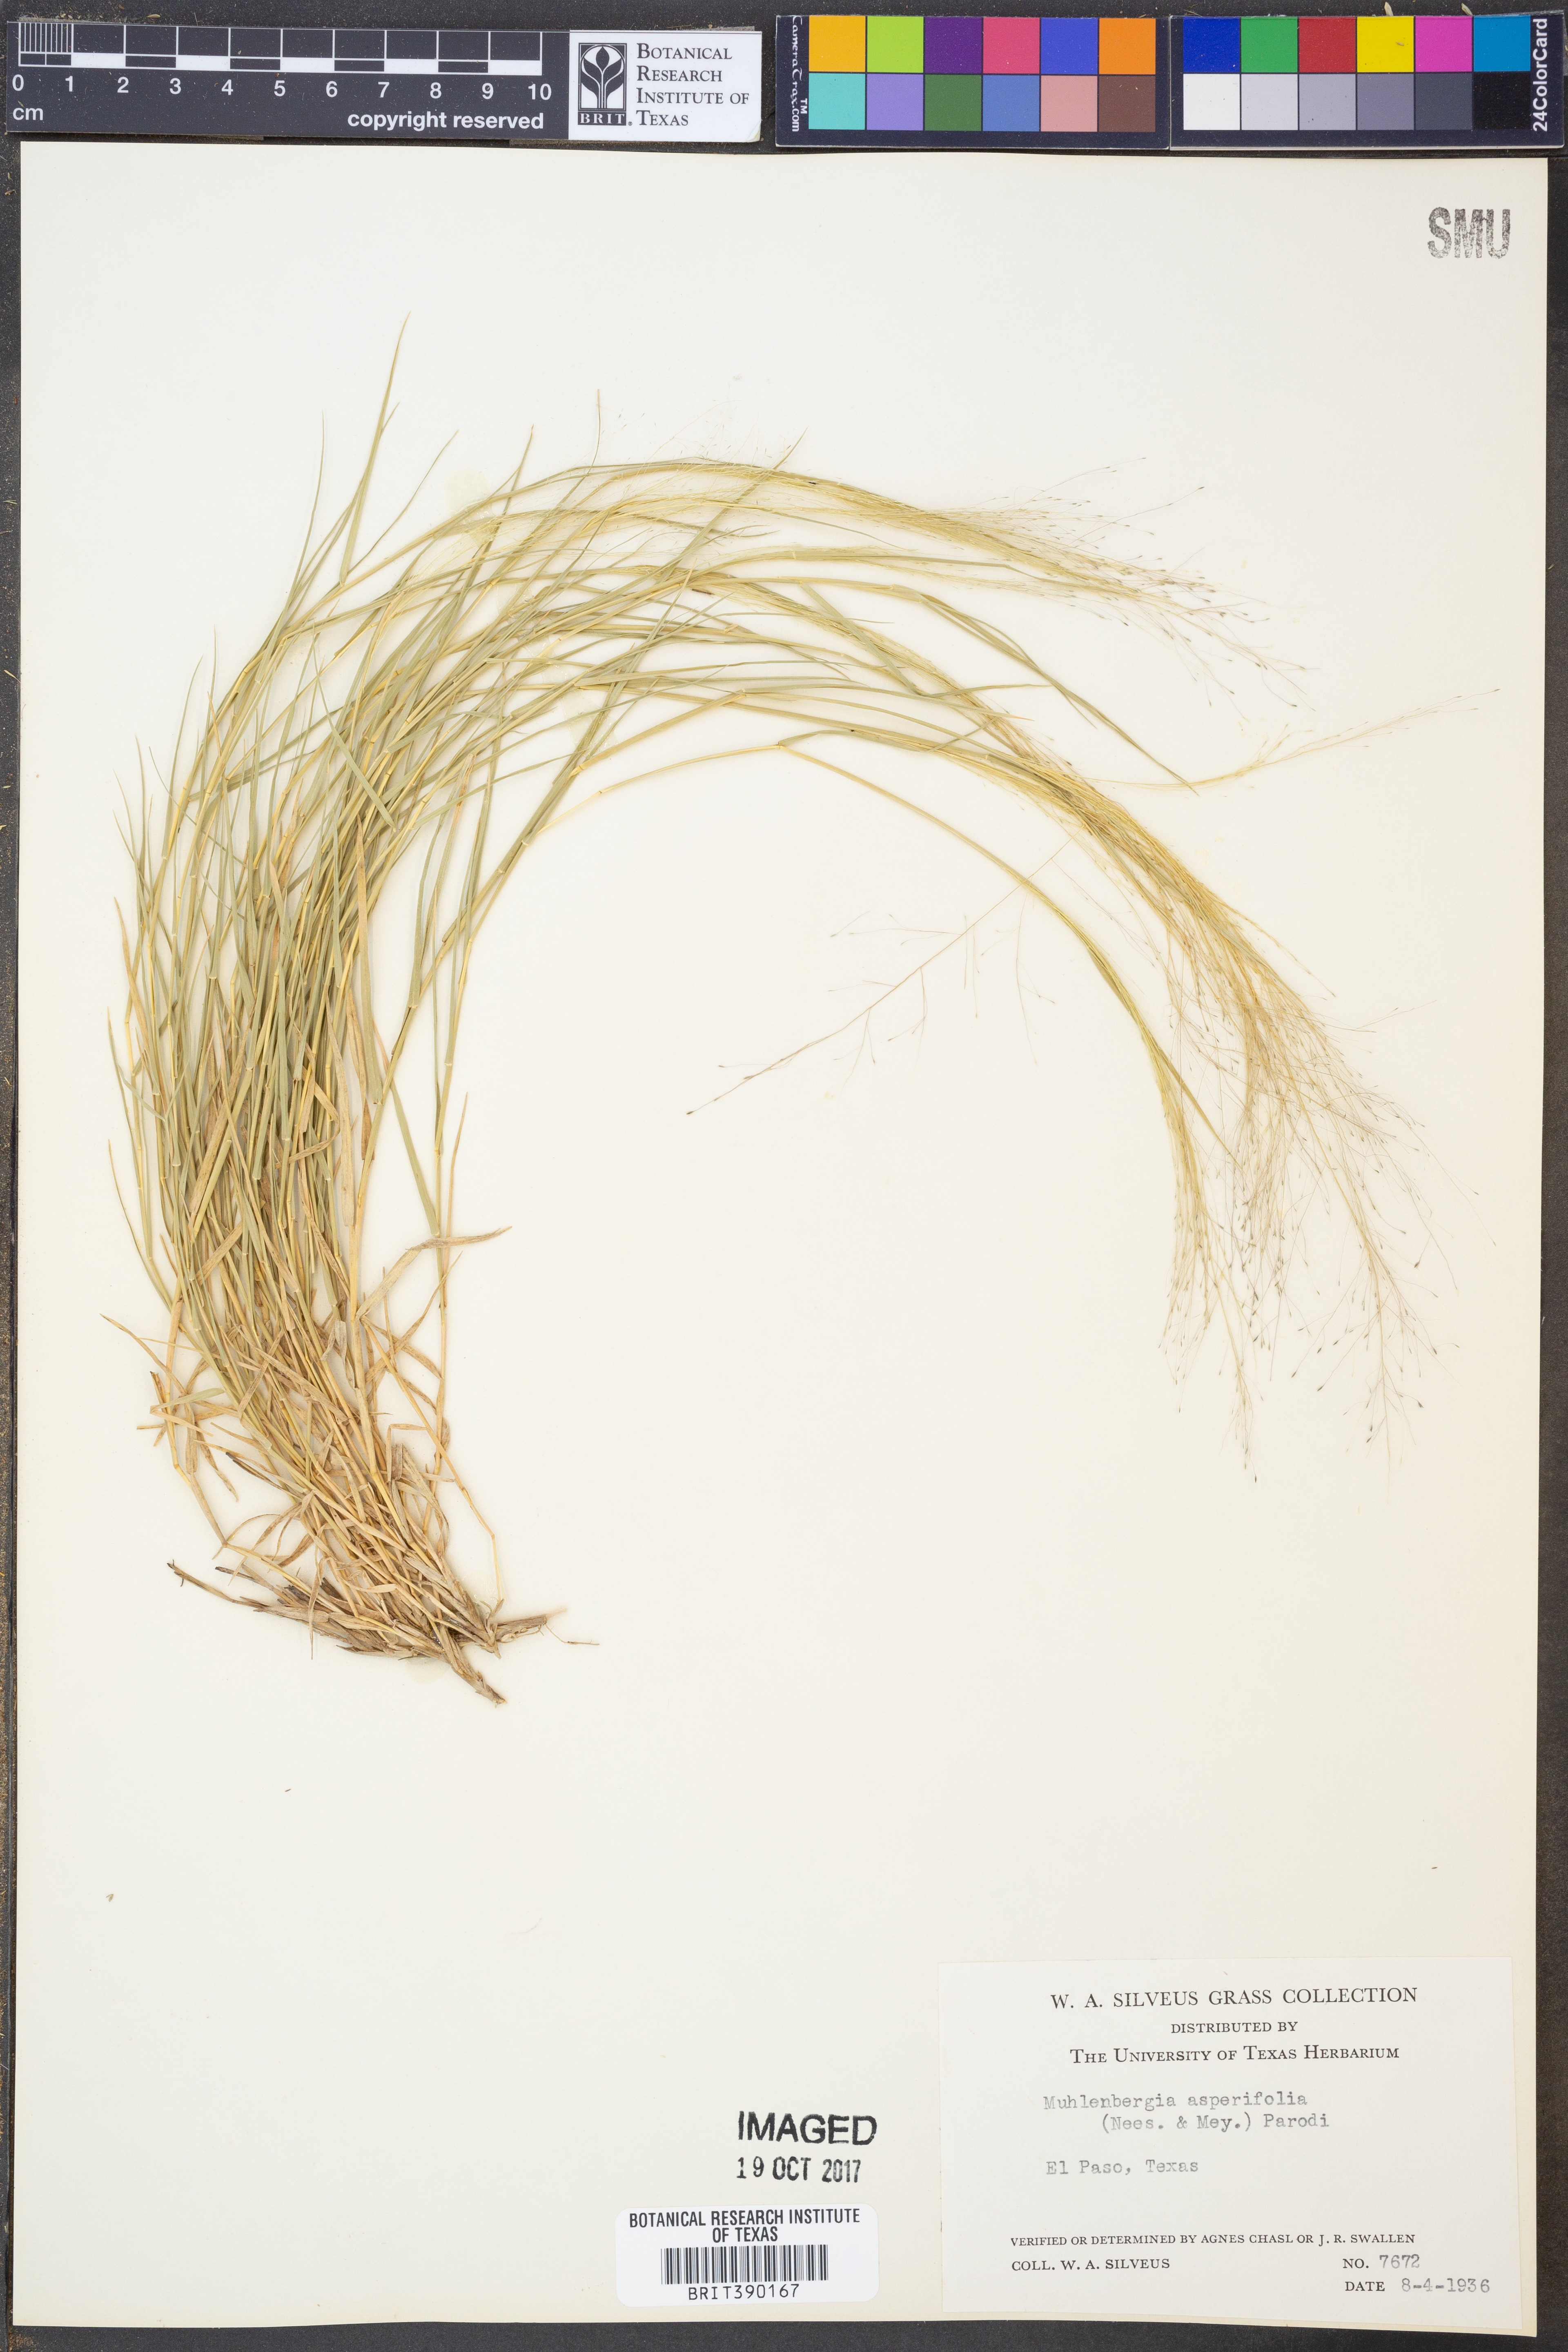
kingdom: Plantae
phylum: Tracheophyta
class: Liliopsida
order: Poales
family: Poaceae
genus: Muhlenbergia
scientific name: Muhlenbergia asperifolia
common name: Alkali muhly
